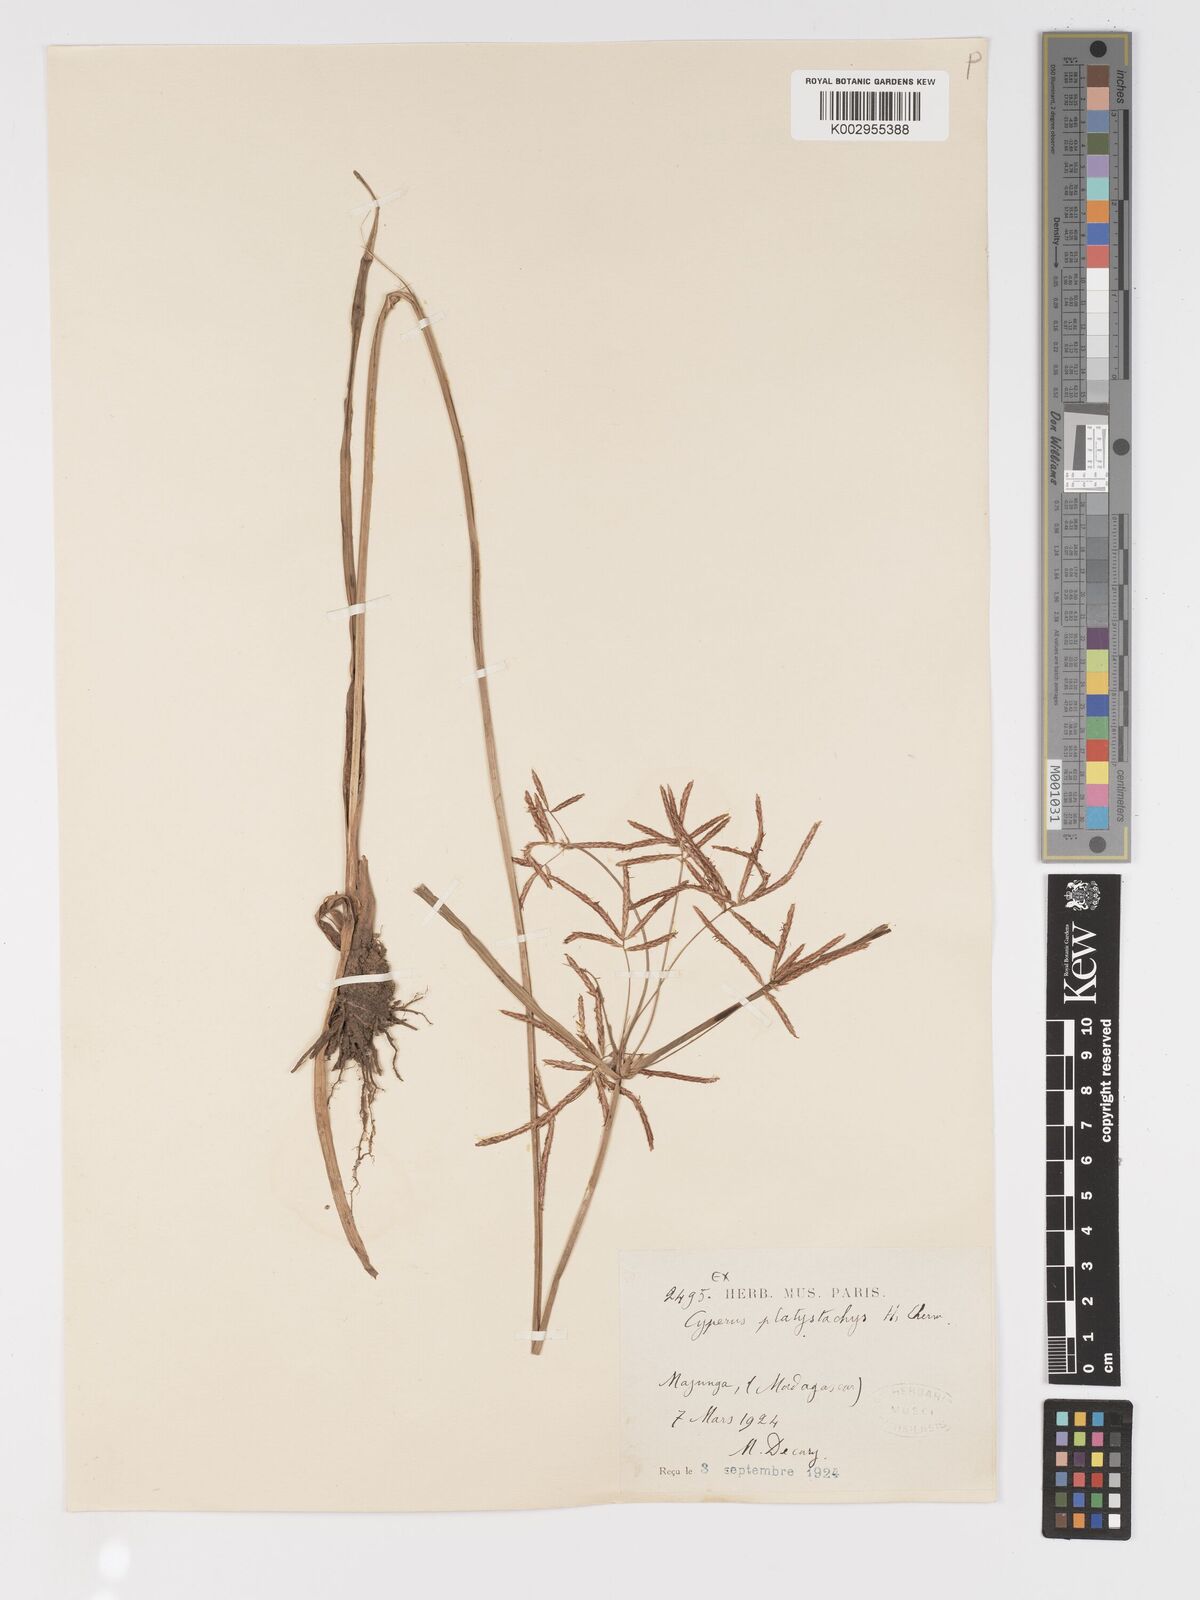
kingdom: Plantae
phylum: Tracheophyta
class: Liliopsida
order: Poales
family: Cyperaceae
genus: Cyperus
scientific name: Cyperus tuberosus
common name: Nut grass
